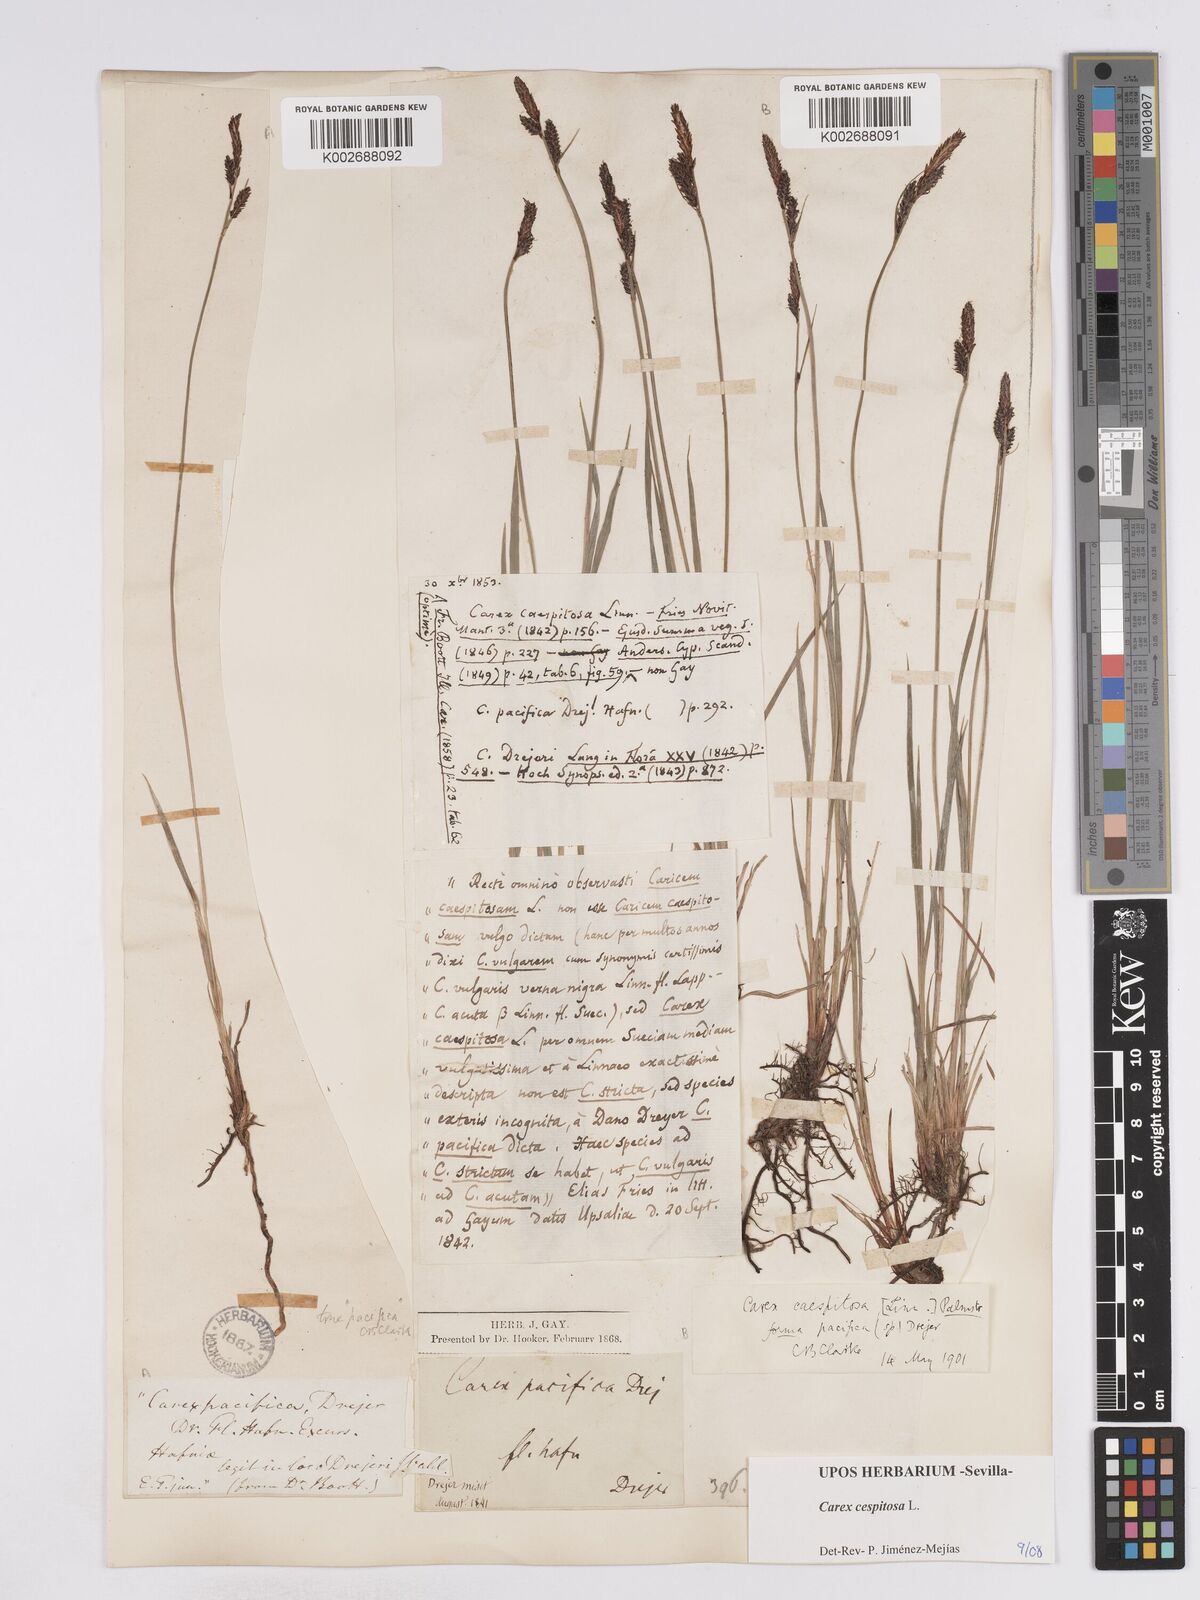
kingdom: Plantae
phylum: Tracheophyta
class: Liliopsida
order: Poales
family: Cyperaceae
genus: Carex
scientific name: Carex
